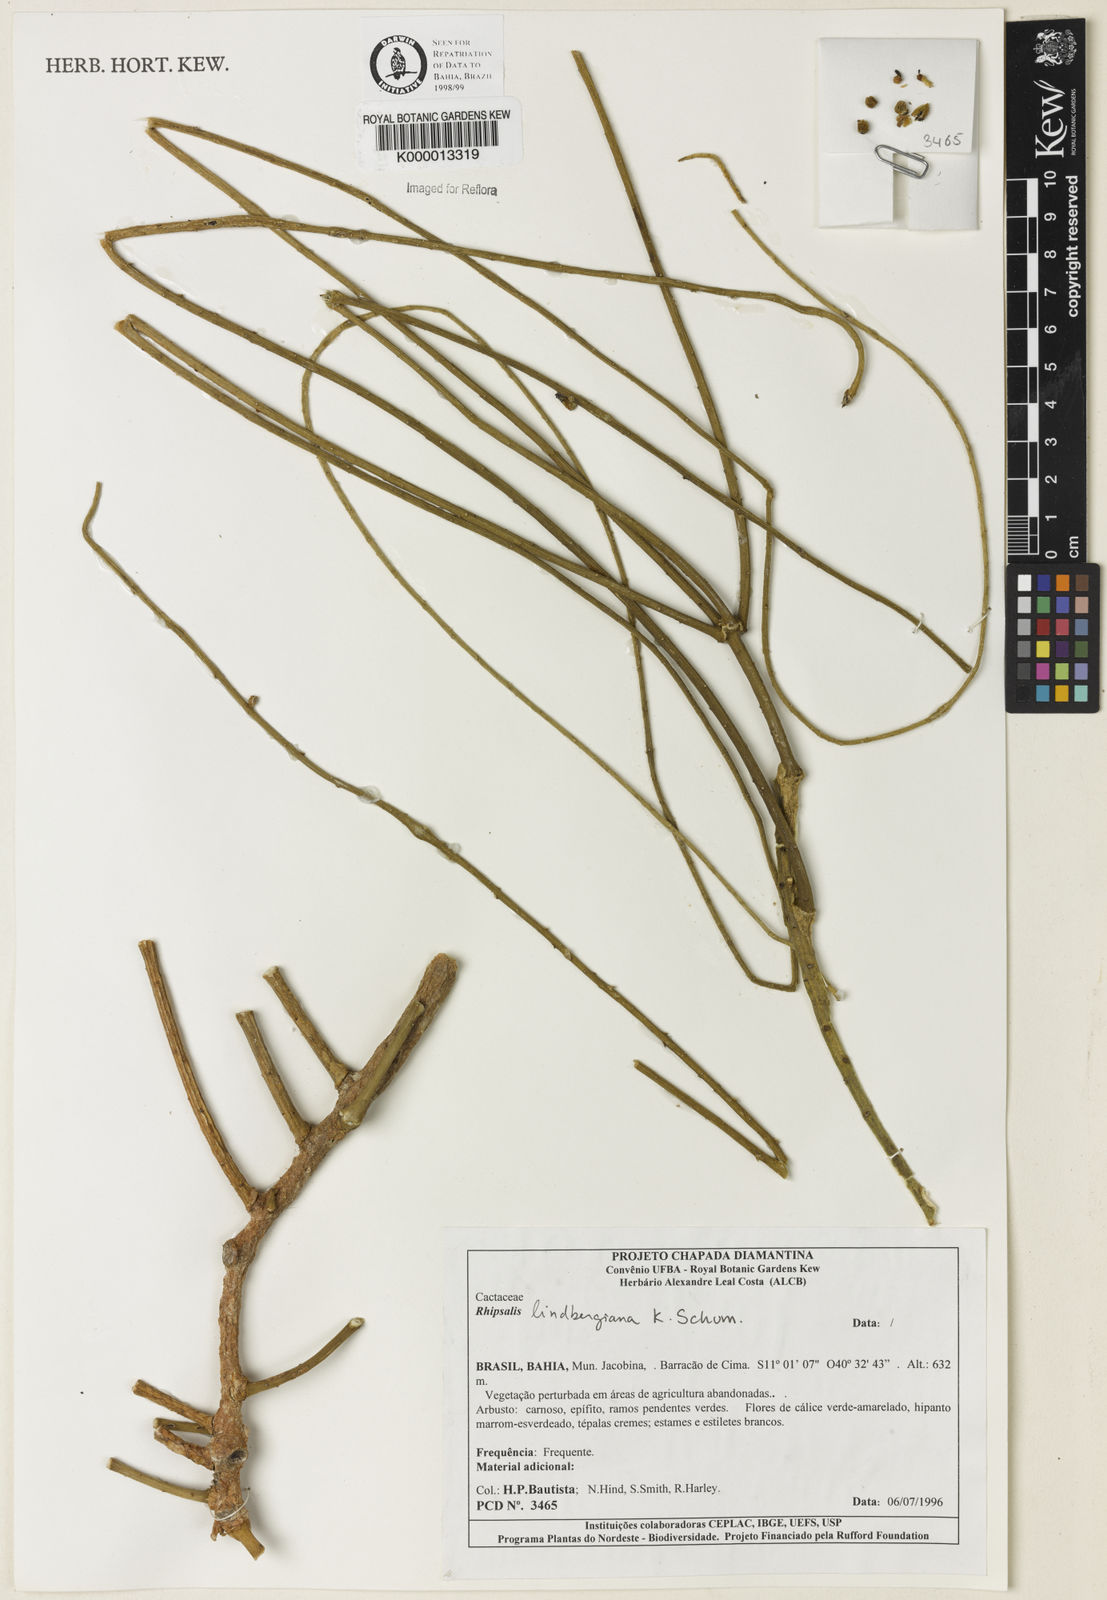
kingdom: Plantae
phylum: Tracheophyta
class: Magnoliopsida
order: Caryophyllales
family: Cactaceae
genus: Rhipsalis
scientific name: Rhipsalis
